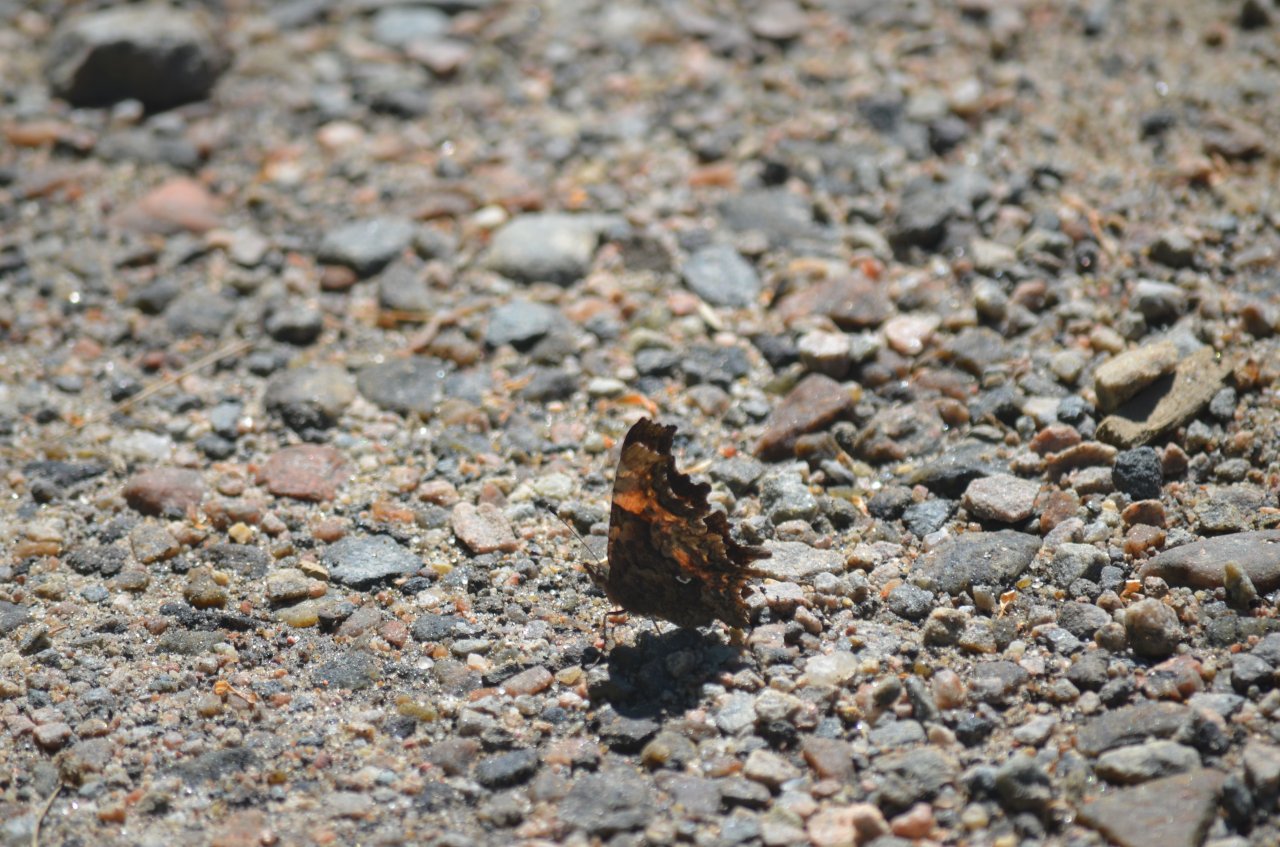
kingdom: Animalia
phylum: Arthropoda
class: Insecta
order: Lepidoptera
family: Nymphalidae
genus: Polygonia
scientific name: Polygonia faunus
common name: Green Comma
